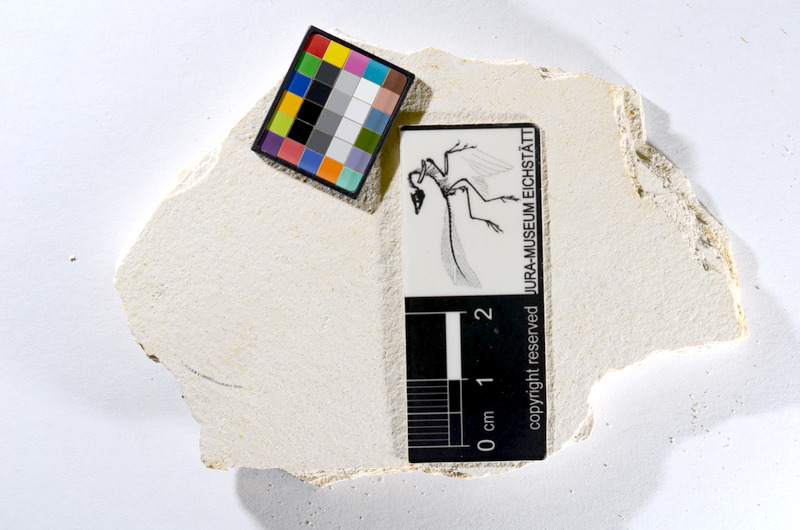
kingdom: Animalia
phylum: Chordata
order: Salmoniformes
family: Orthogonikleithridae
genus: Orthogonikleithrus
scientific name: Orthogonikleithrus hoelli
